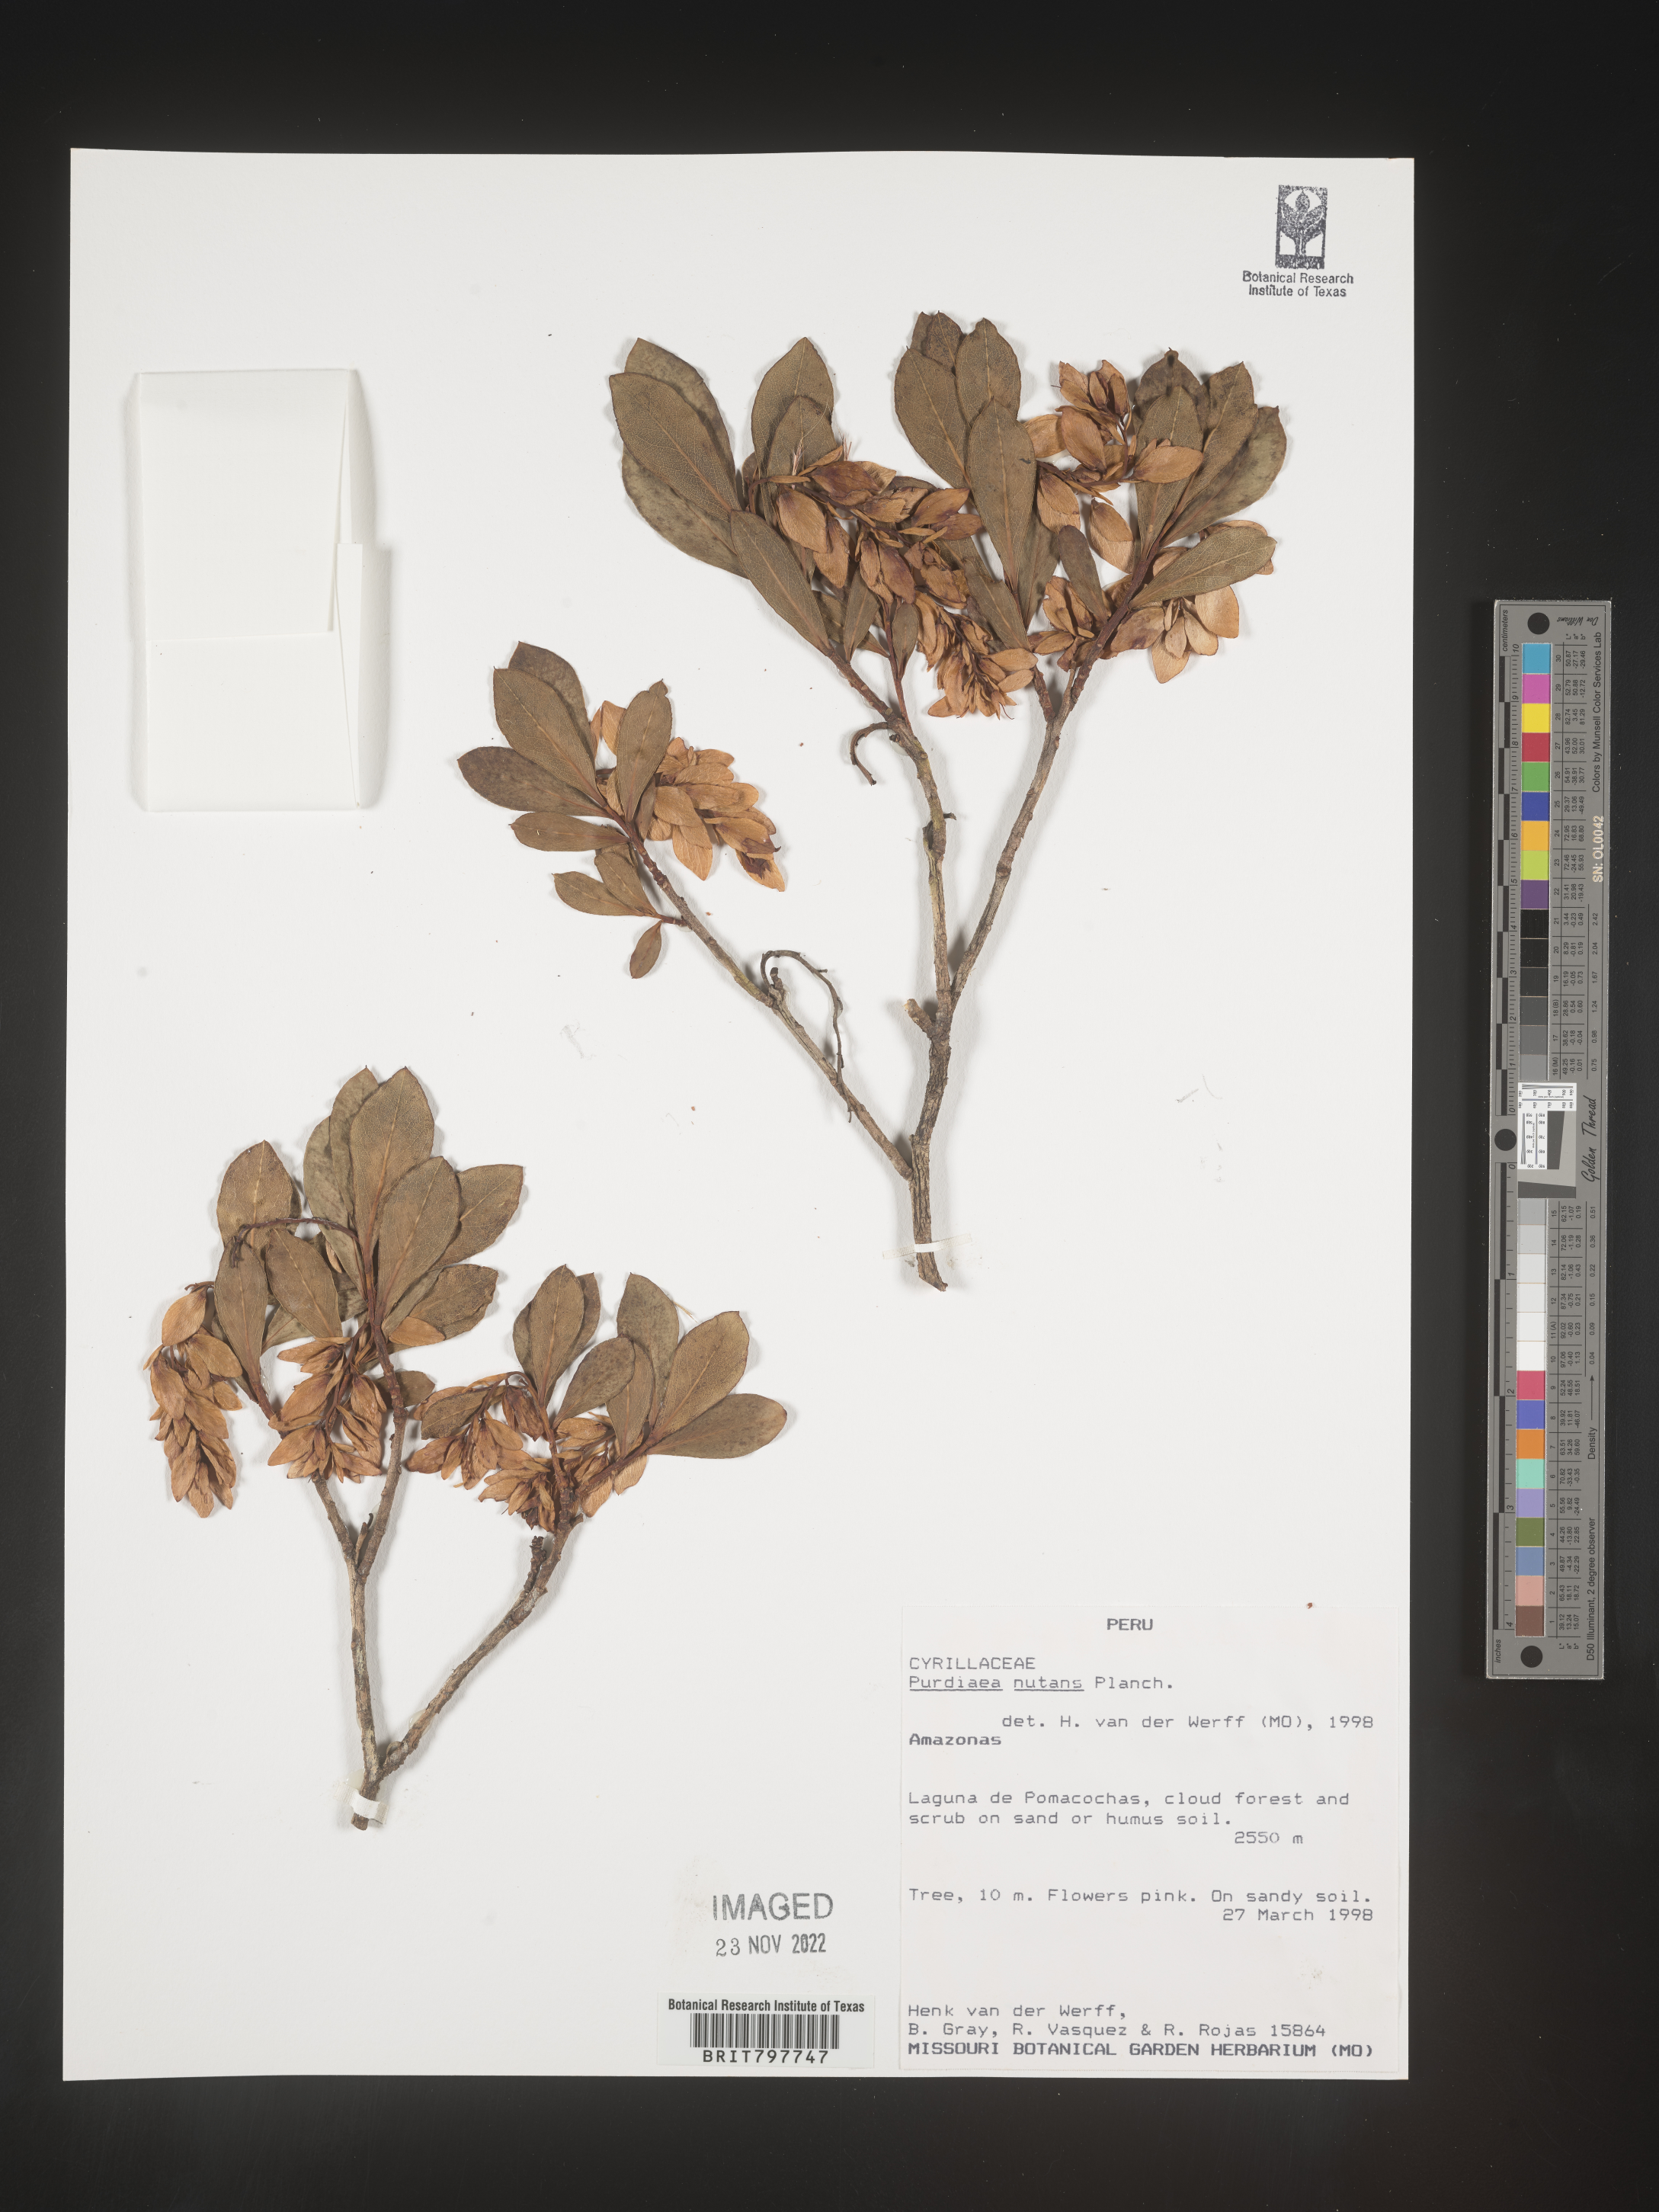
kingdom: Plantae
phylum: Tracheophyta
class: Magnoliopsida
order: Ericales
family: Clethraceae
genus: Purdiaea
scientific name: Purdiaea
